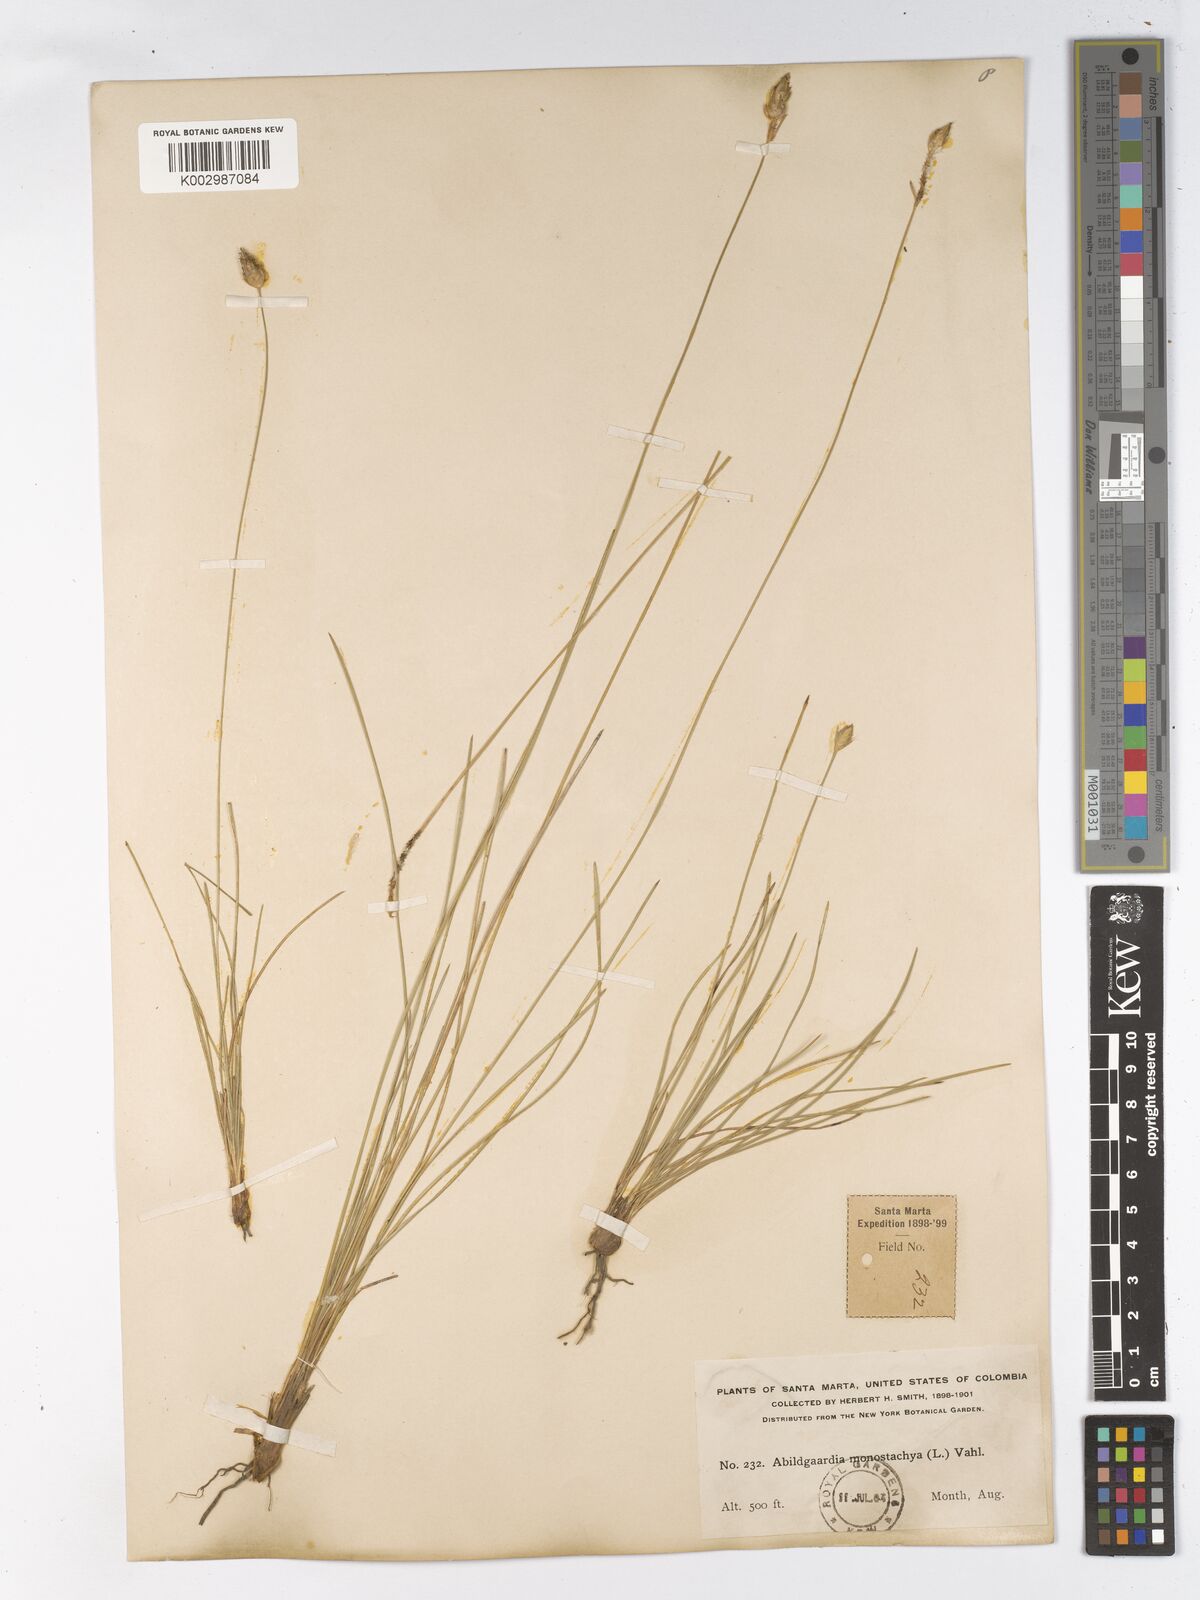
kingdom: Plantae
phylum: Tracheophyta
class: Liliopsida
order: Poales
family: Cyperaceae
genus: Abildgaardia
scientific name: Abildgaardia ovata
